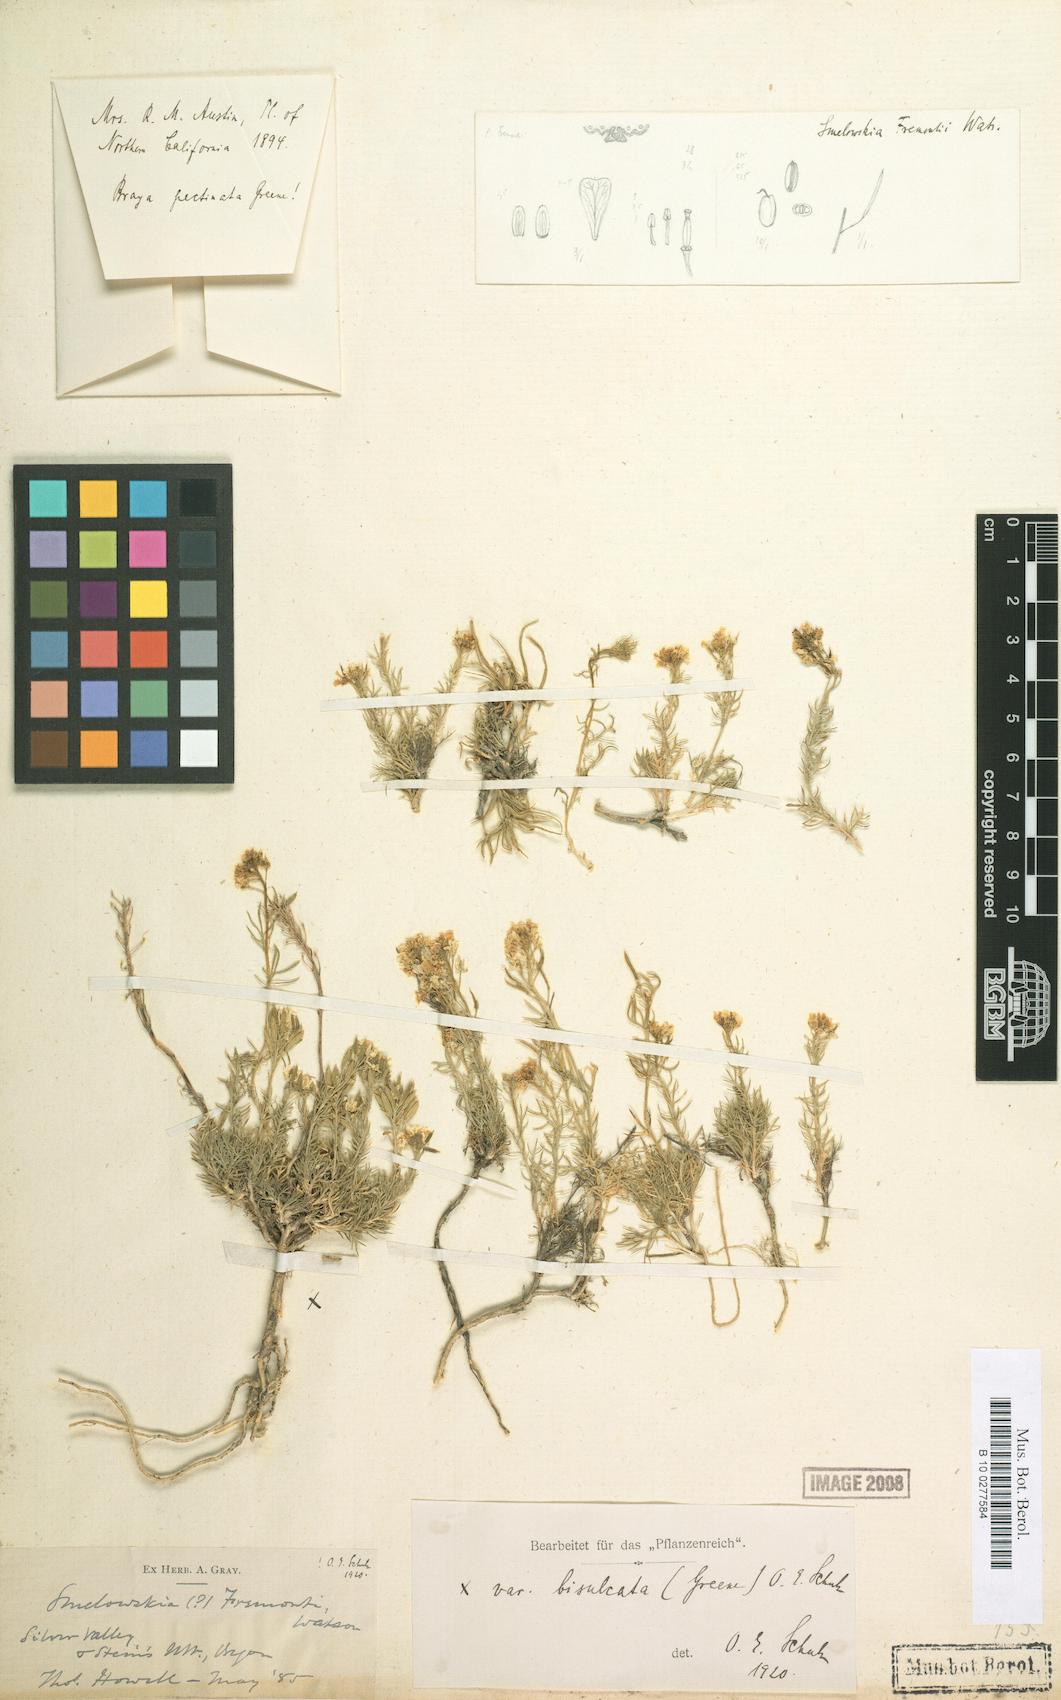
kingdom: Plantae
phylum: Tracheophyta
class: Magnoliopsida
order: Brassicales
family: Brassicaceae
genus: Polyctenium
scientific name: Polyctenium fremontii
